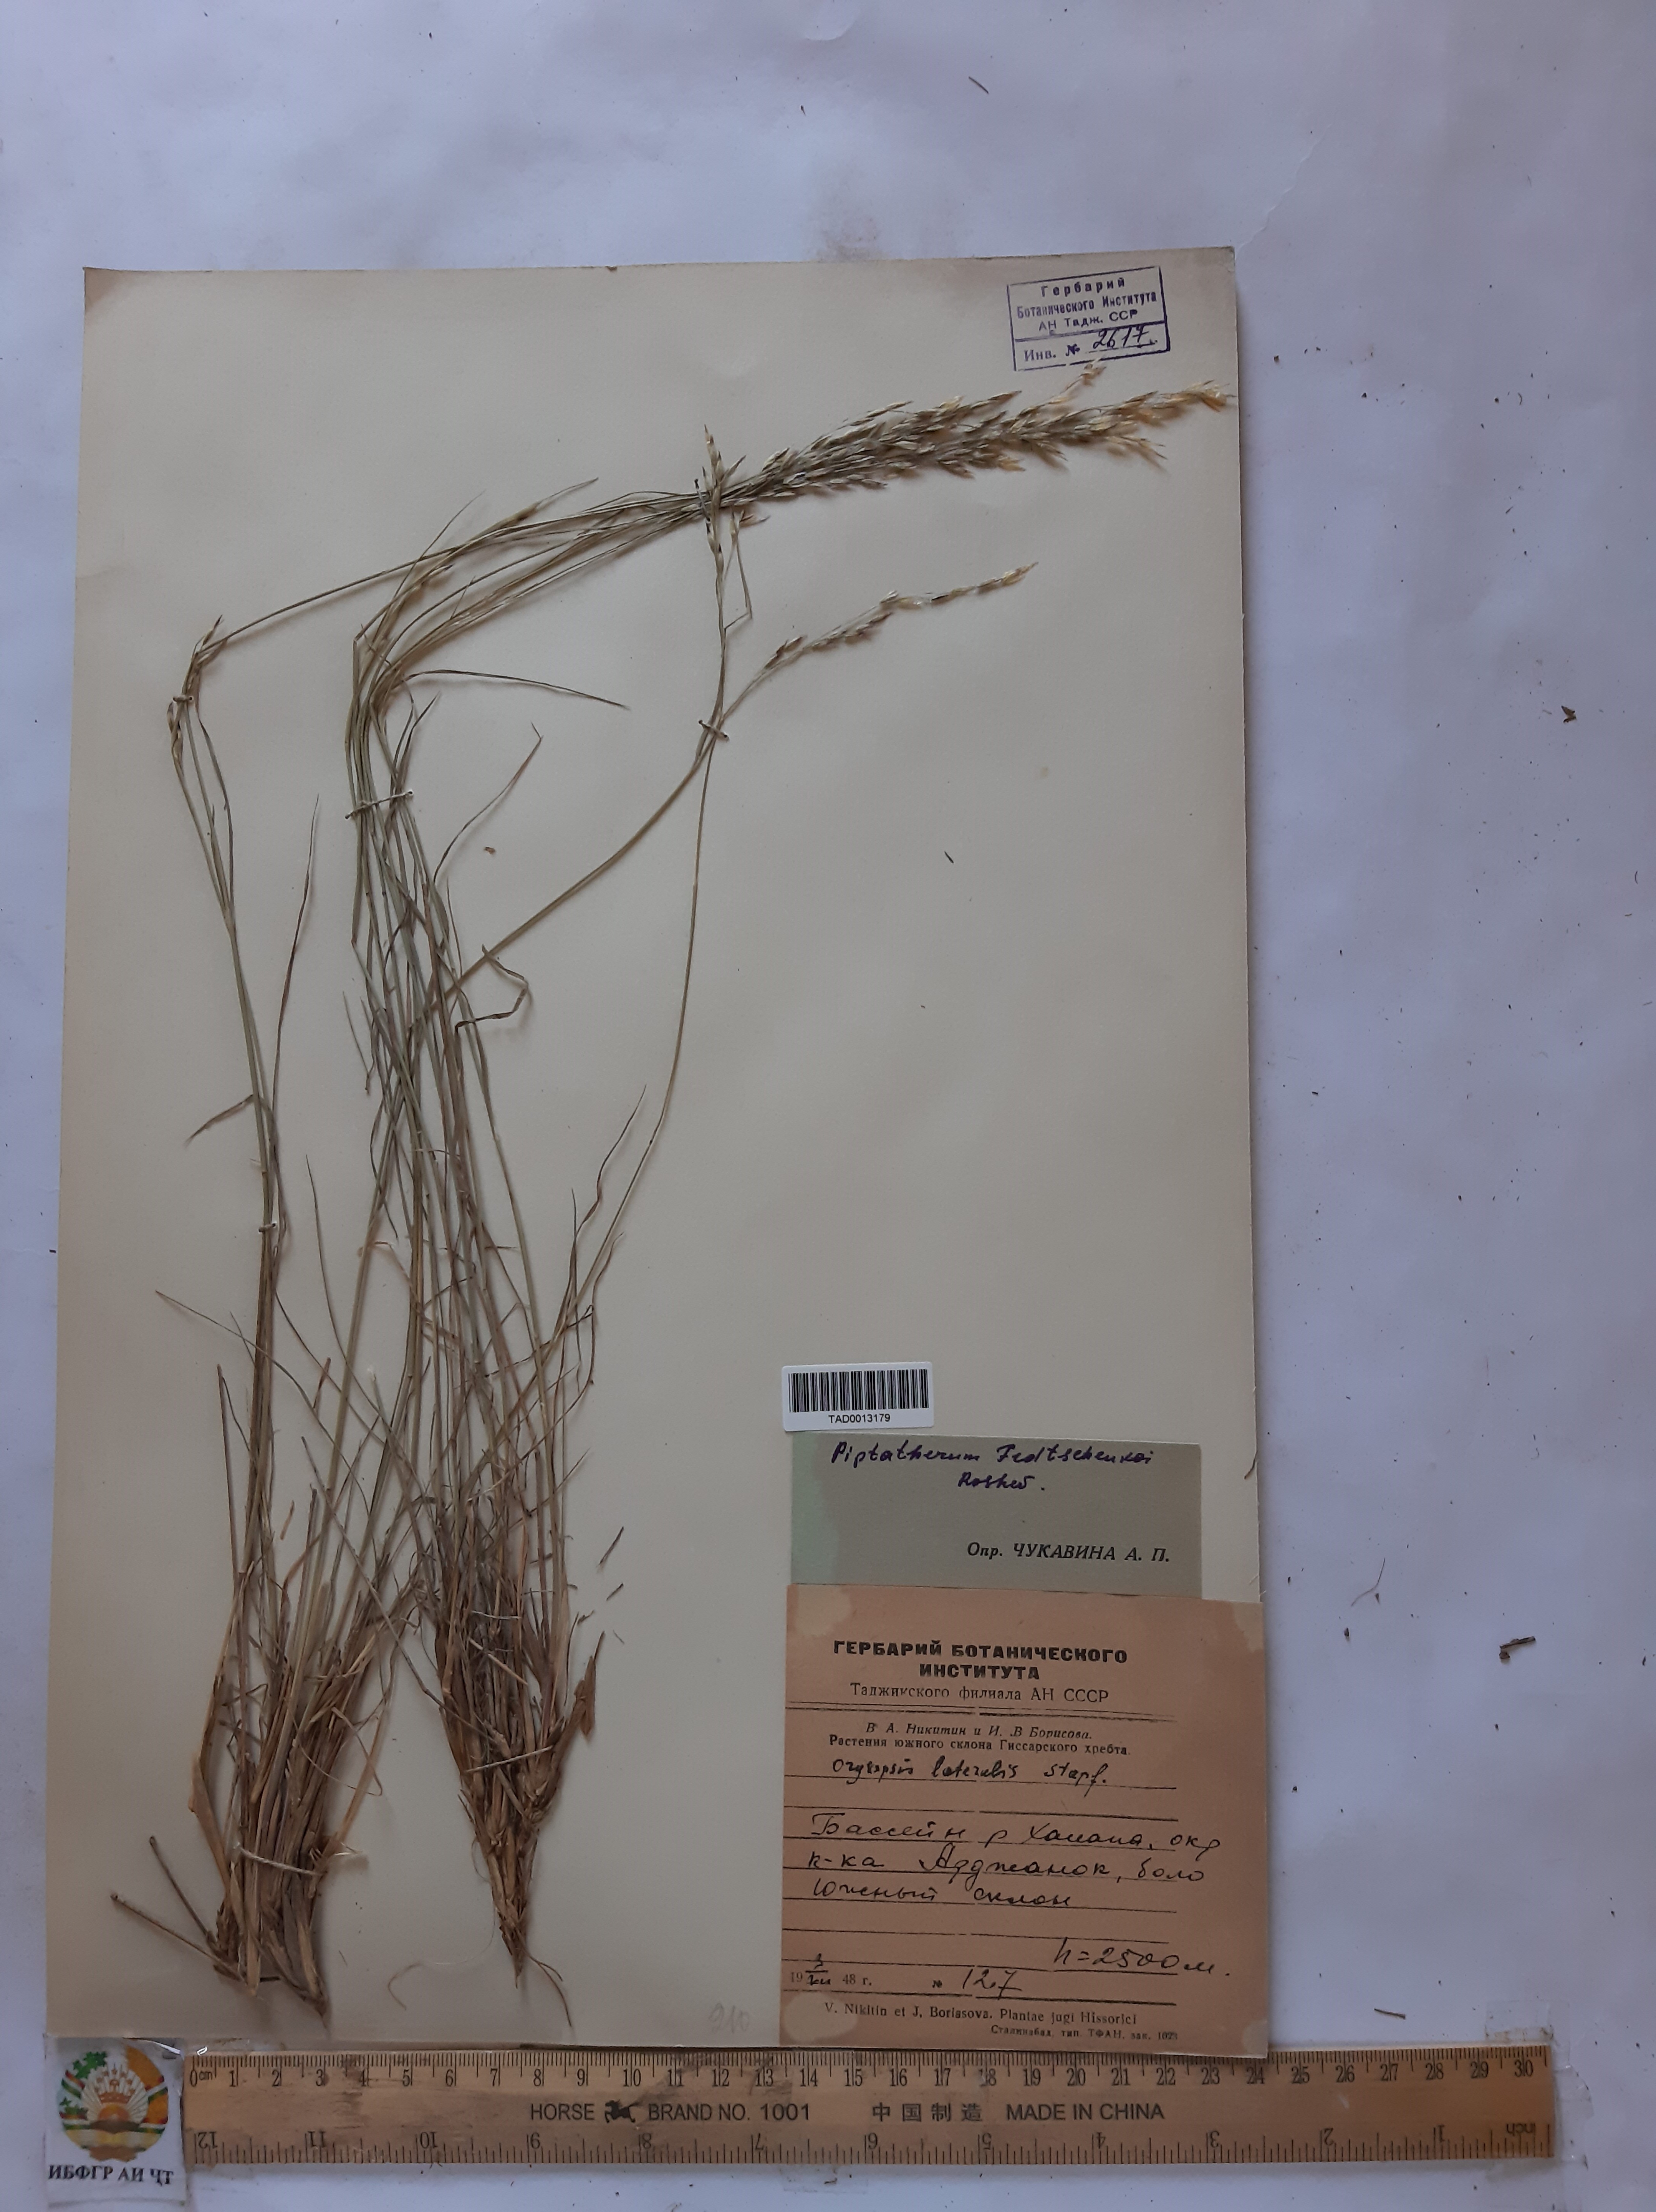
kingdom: Plantae
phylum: Tracheophyta
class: Liliopsida
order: Poales
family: Poaceae
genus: Piptatherum
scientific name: Piptatherum sogdianum
